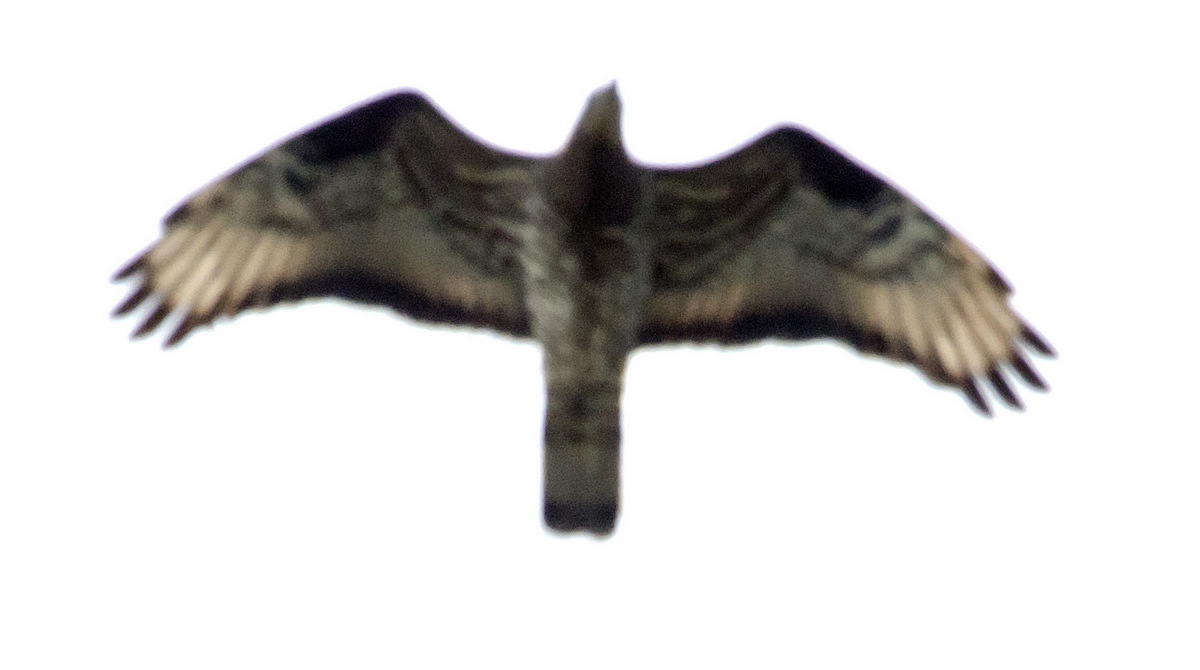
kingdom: Animalia
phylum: Chordata
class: Aves
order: Accipitriformes
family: Accipitridae
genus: Pernis
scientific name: Pernis apivorus
